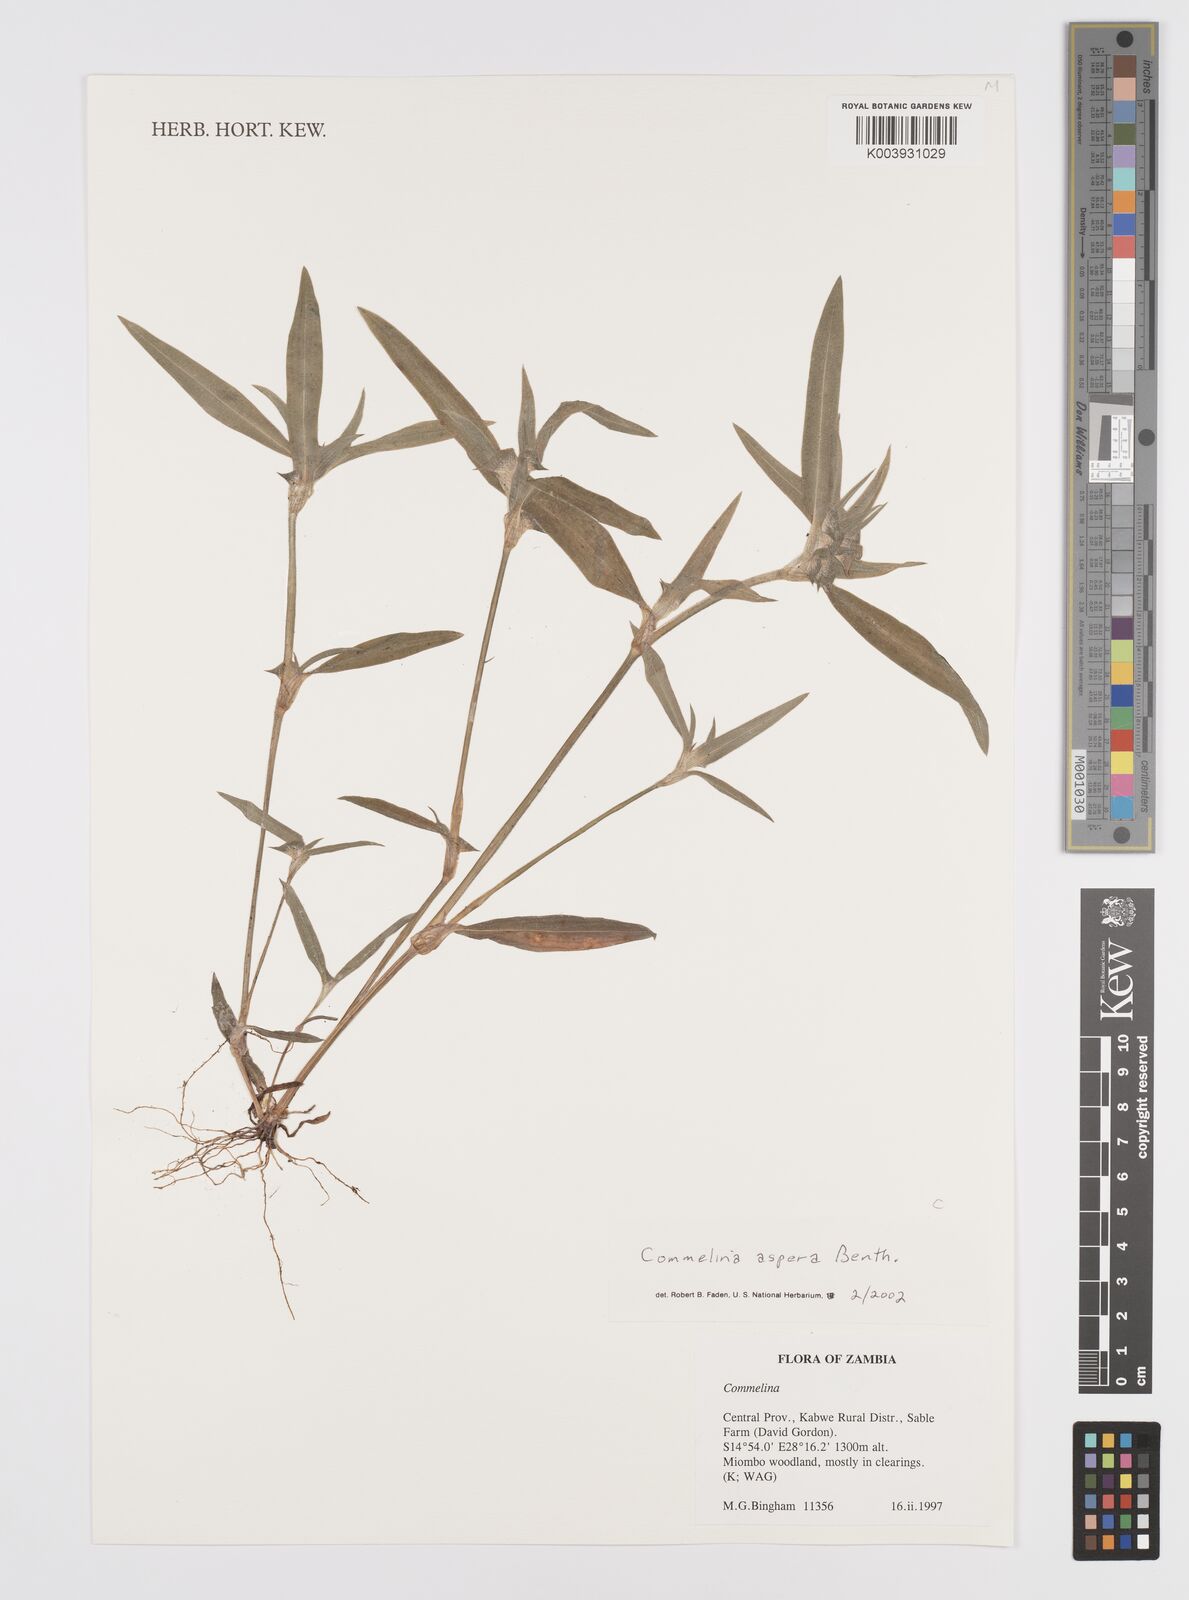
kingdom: Plantae
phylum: Tracheophyta
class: Liliopsida
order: Commelinales
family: Commelinaceae
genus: Commelina
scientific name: Commelina aspera
